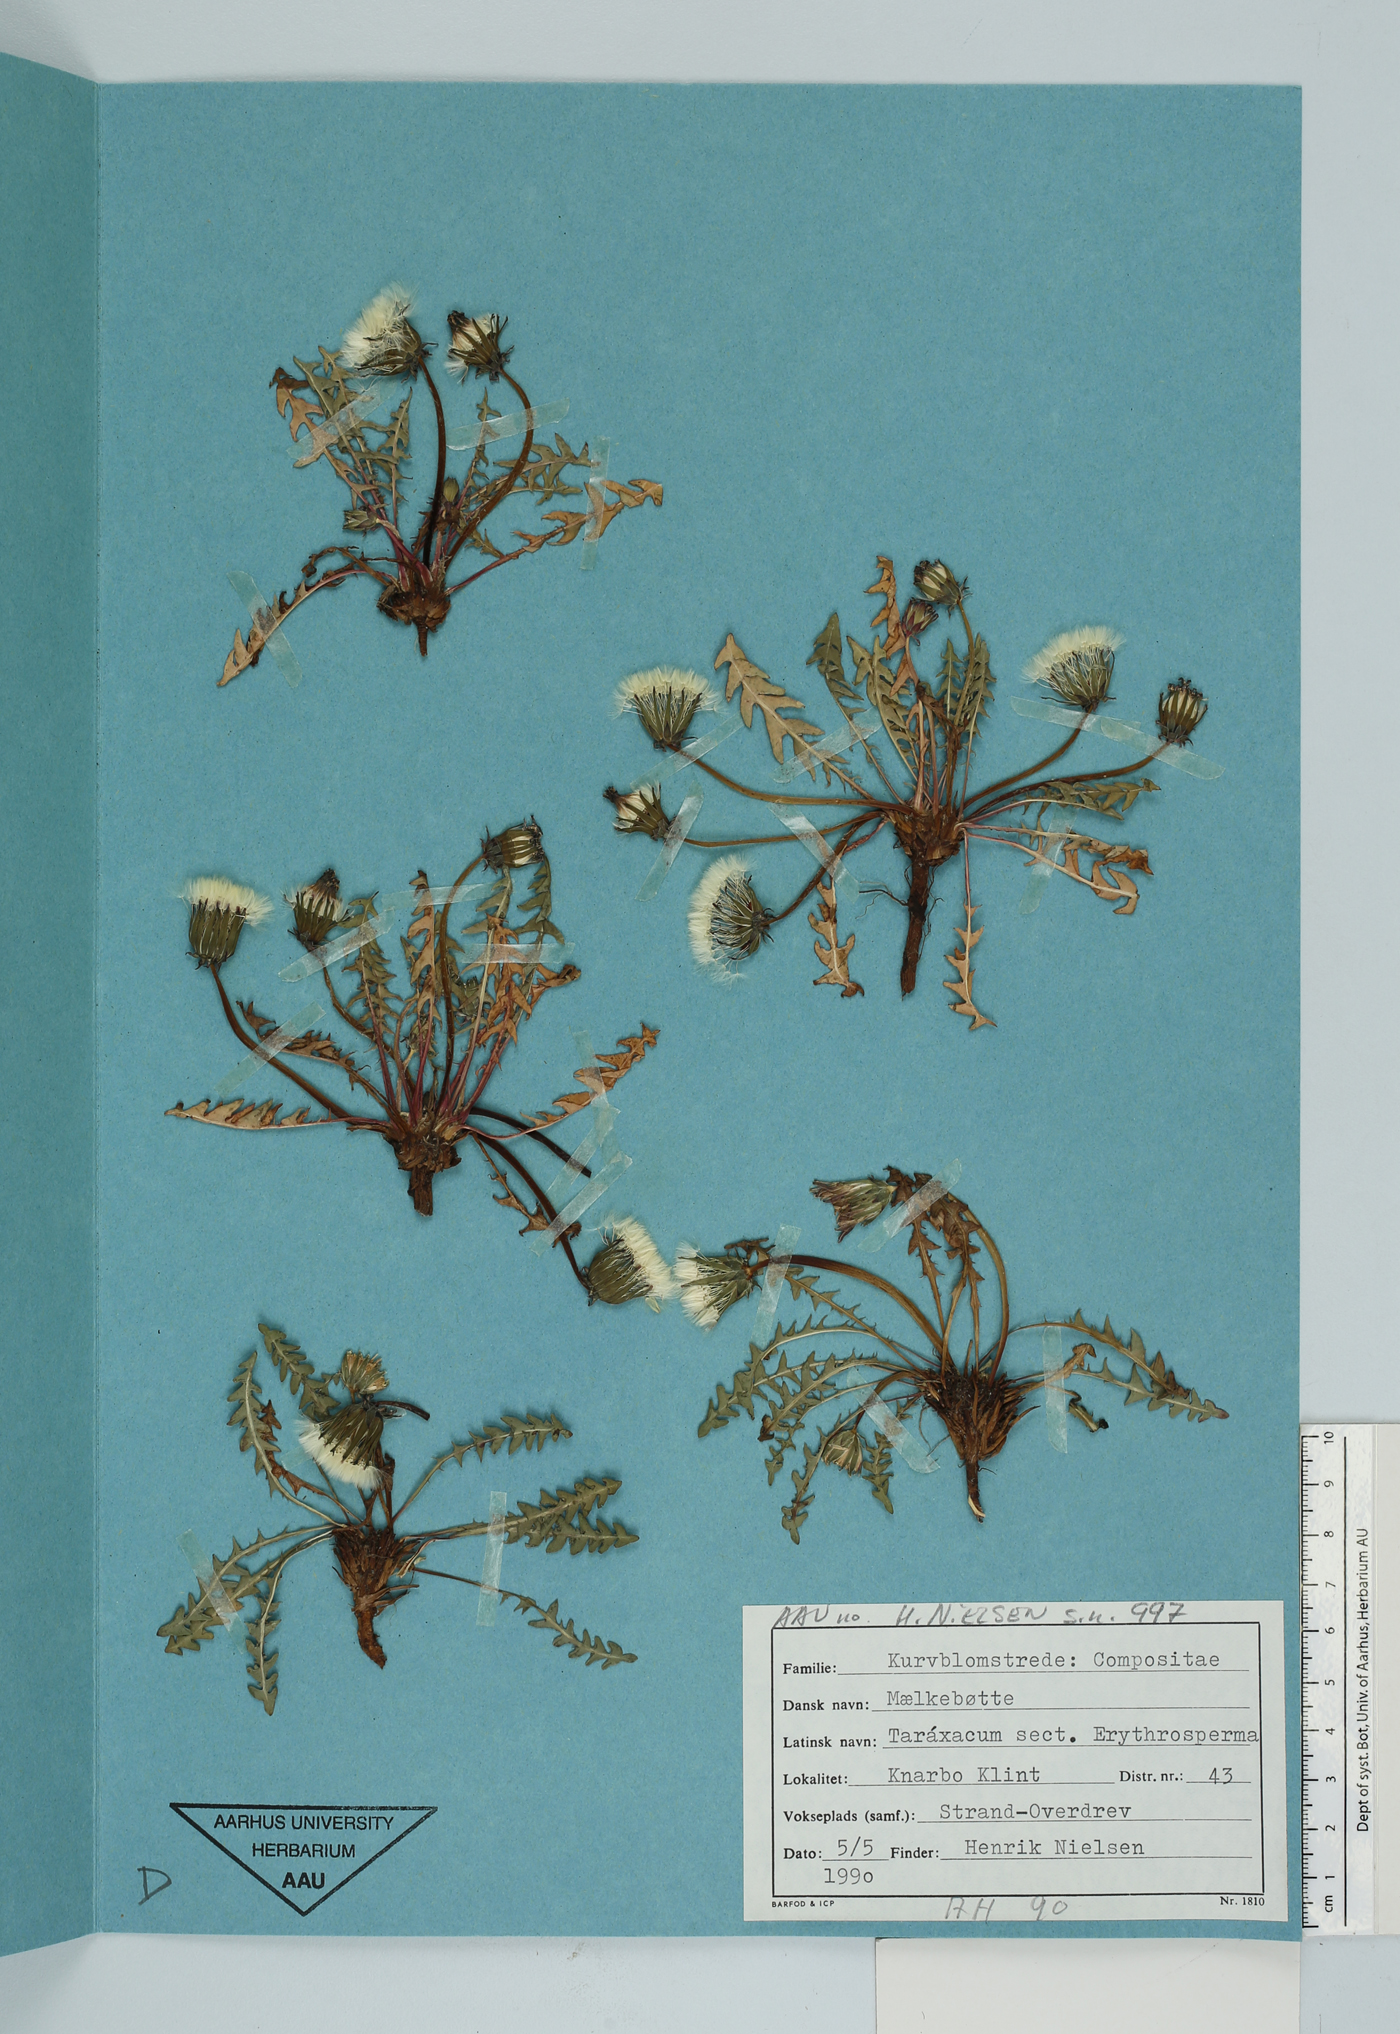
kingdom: Plantae
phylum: Tracheophyta
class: Magnoliopsida
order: Asterales
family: Asteraceae
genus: Taraxacum
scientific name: Taraxacum officinale
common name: Common dandelion
